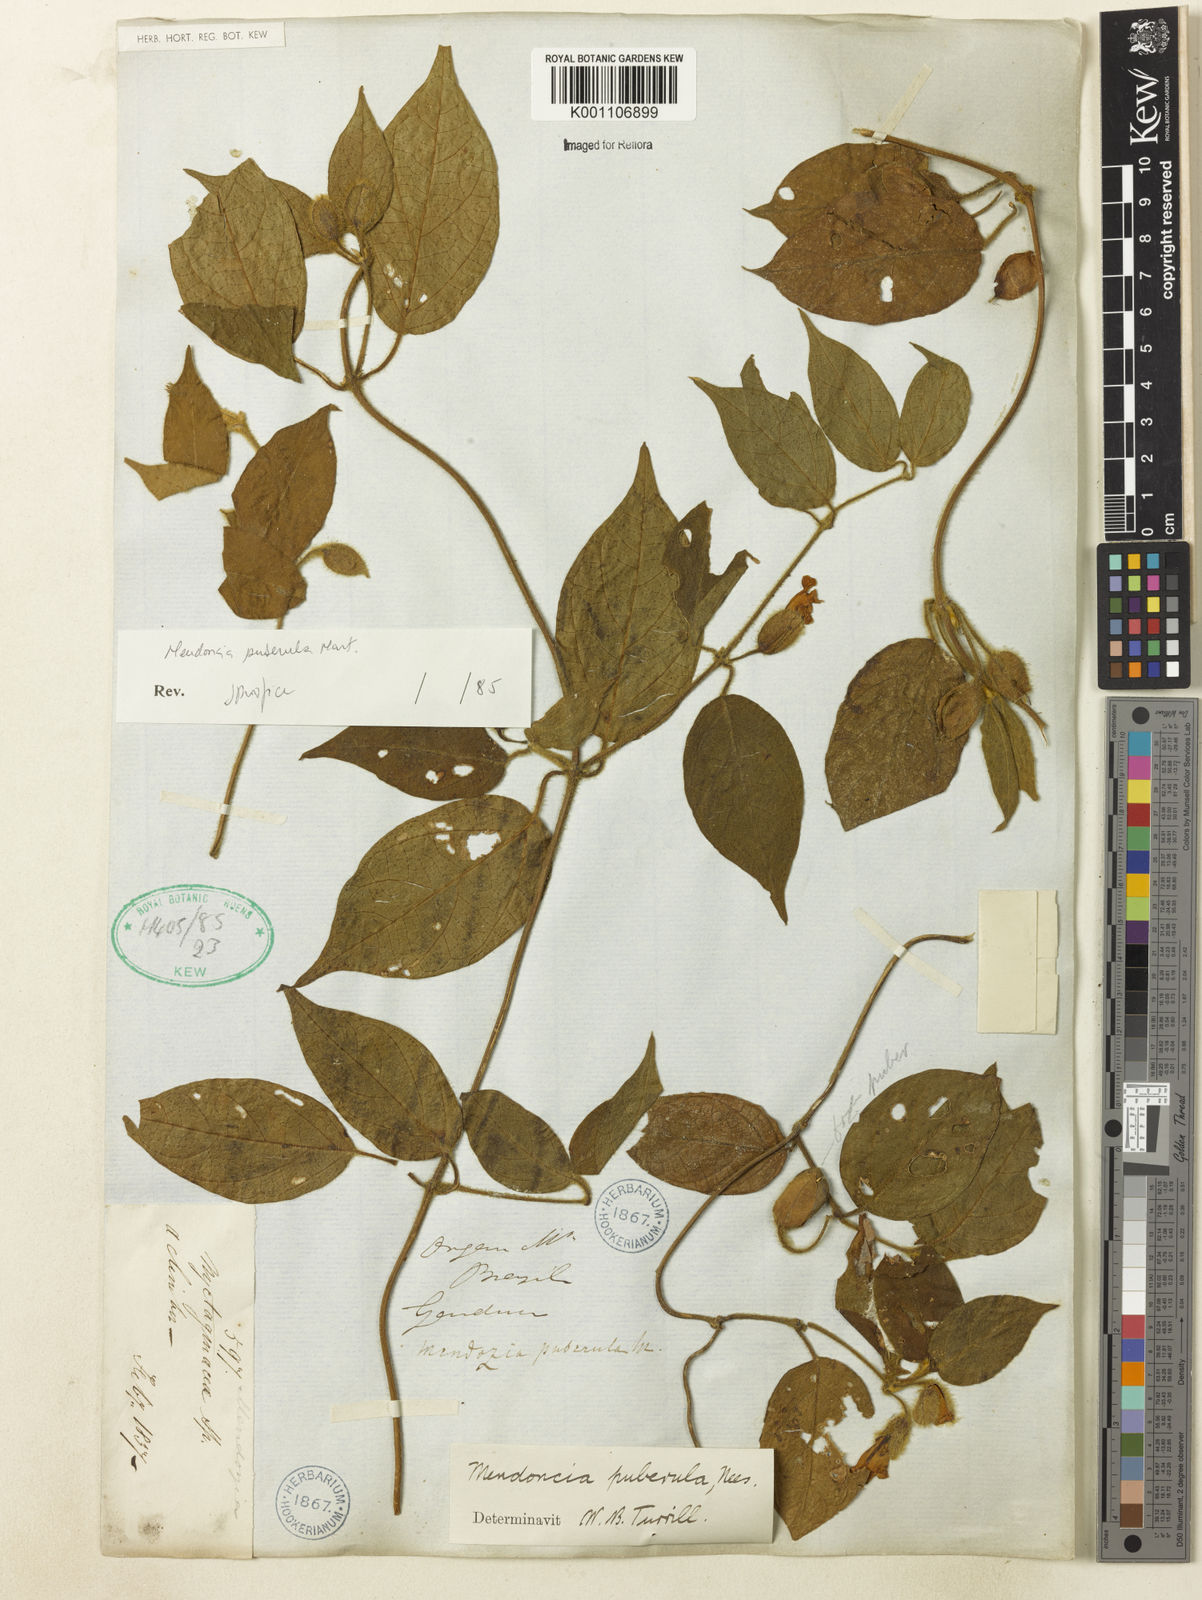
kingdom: Plantae
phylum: Tracheophyta
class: Magnoliopsida
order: Lamiales
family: Acanthaceae
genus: Mendoncia
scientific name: Mendoncia puberula
